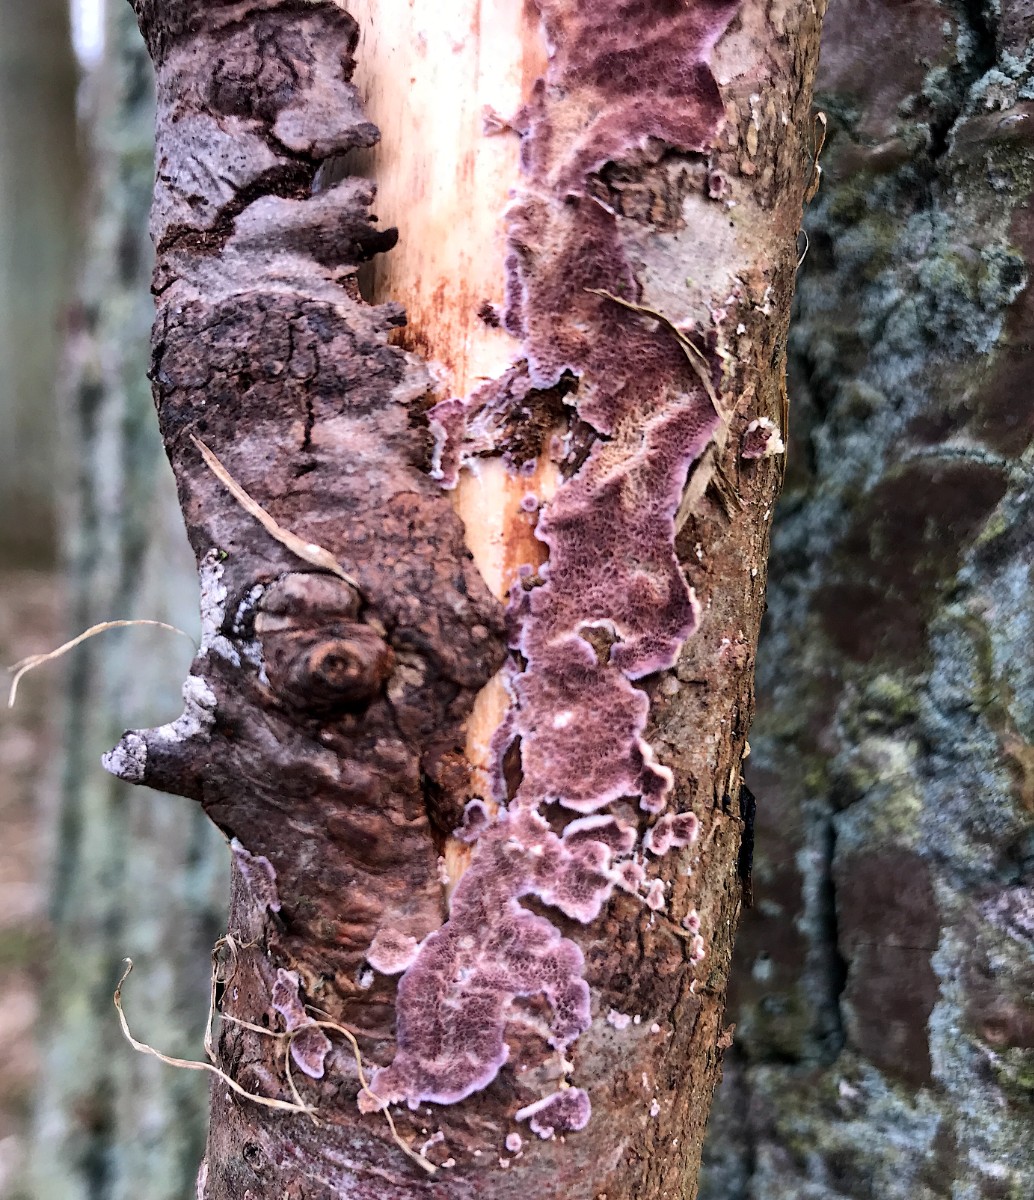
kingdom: Fungi
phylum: Basidiomycota
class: Agaricomycetes
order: Hymenochaetales
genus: Trichaptum
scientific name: Trichaptum abietinum
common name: almindelig violporesvamp
